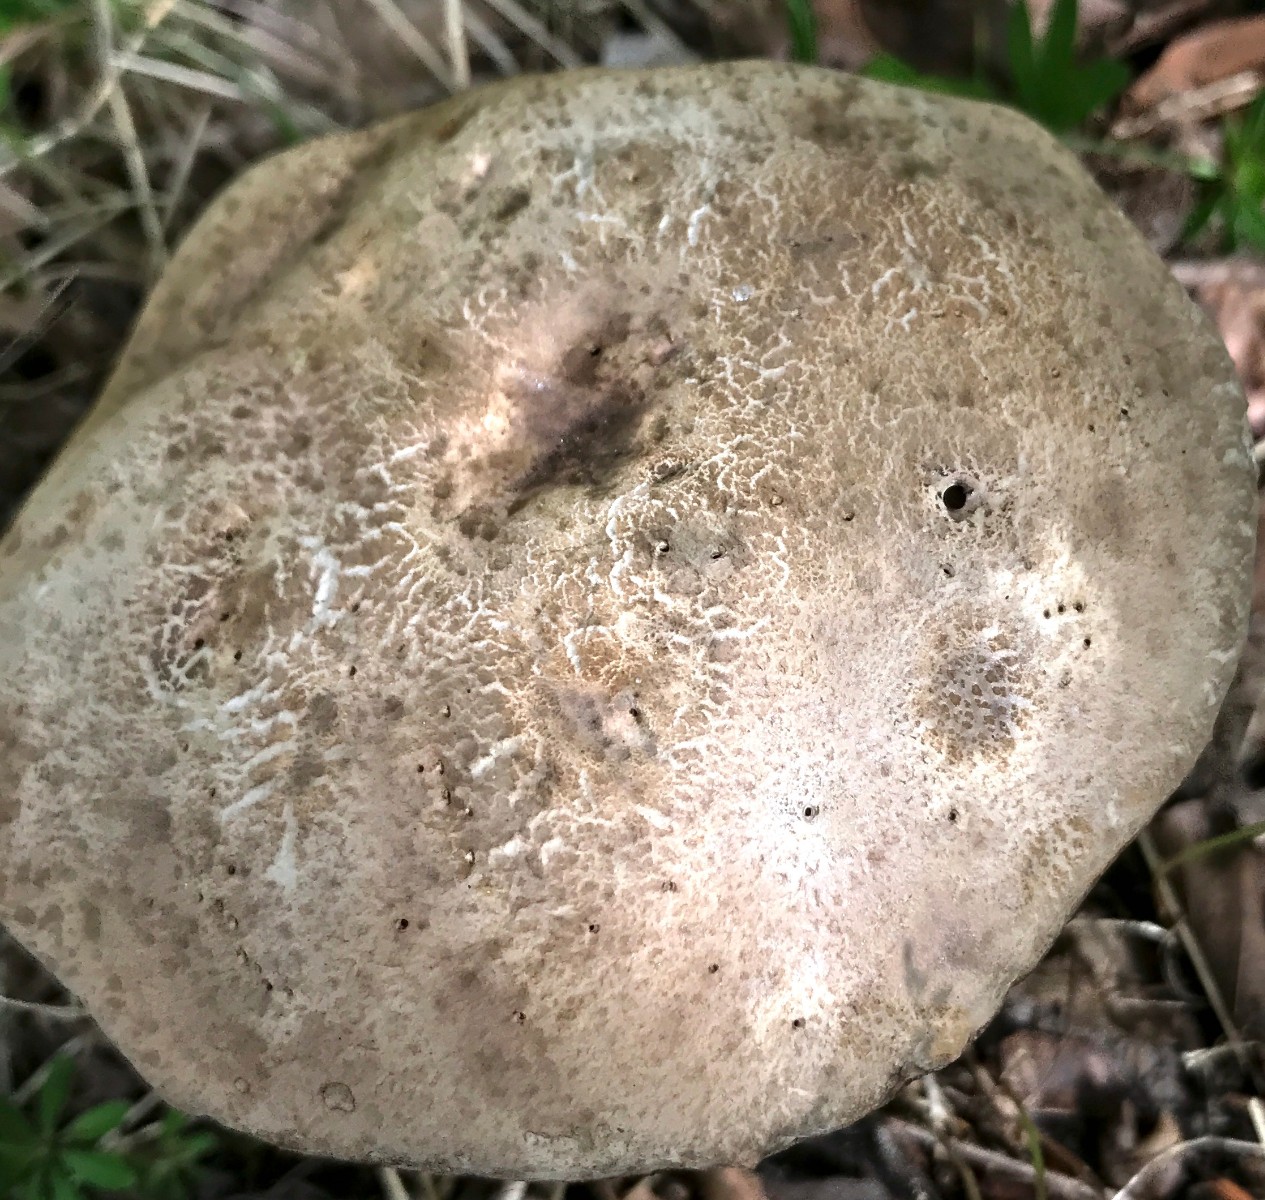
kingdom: Fungi
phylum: Basidiomycota
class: Agaricomycetes
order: Boletales
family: Boletaceae
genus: Leccinum
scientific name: Leccinum
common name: skælrørhat
